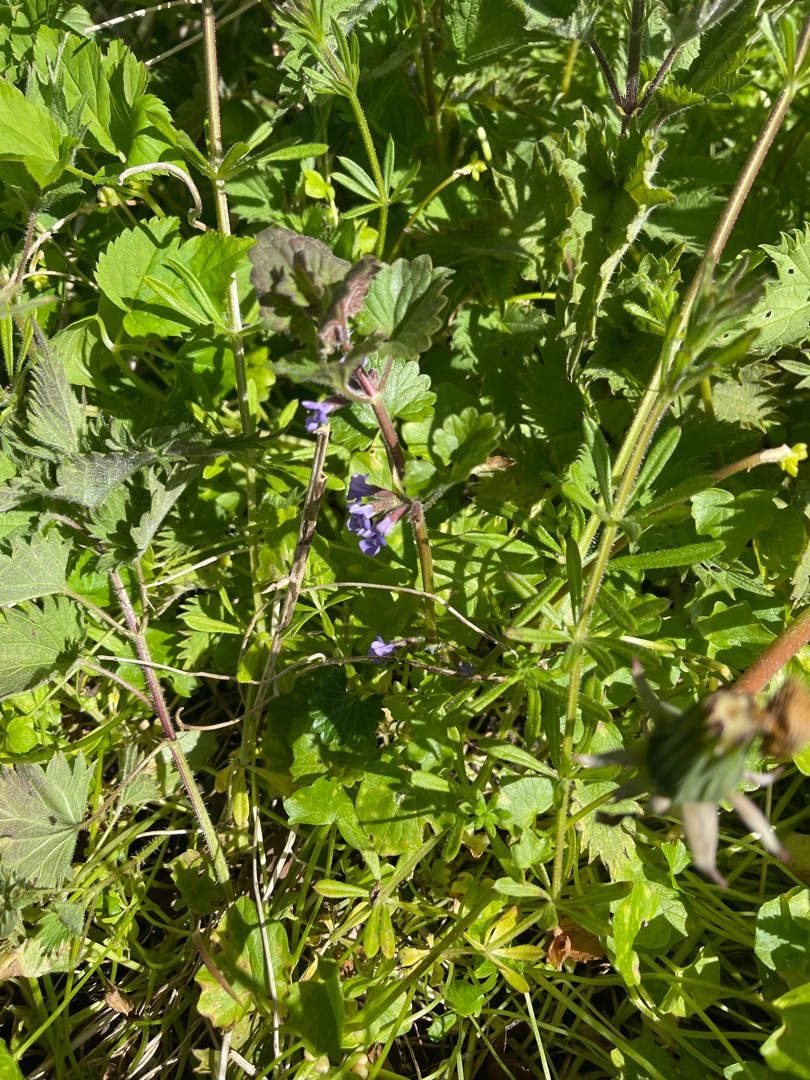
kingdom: Plantae
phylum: Tracheophyta
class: Magnoliopsida
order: Lamiales
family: Lamiaceae
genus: Glechoma
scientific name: Glechoma hederacea
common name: Korsknap
